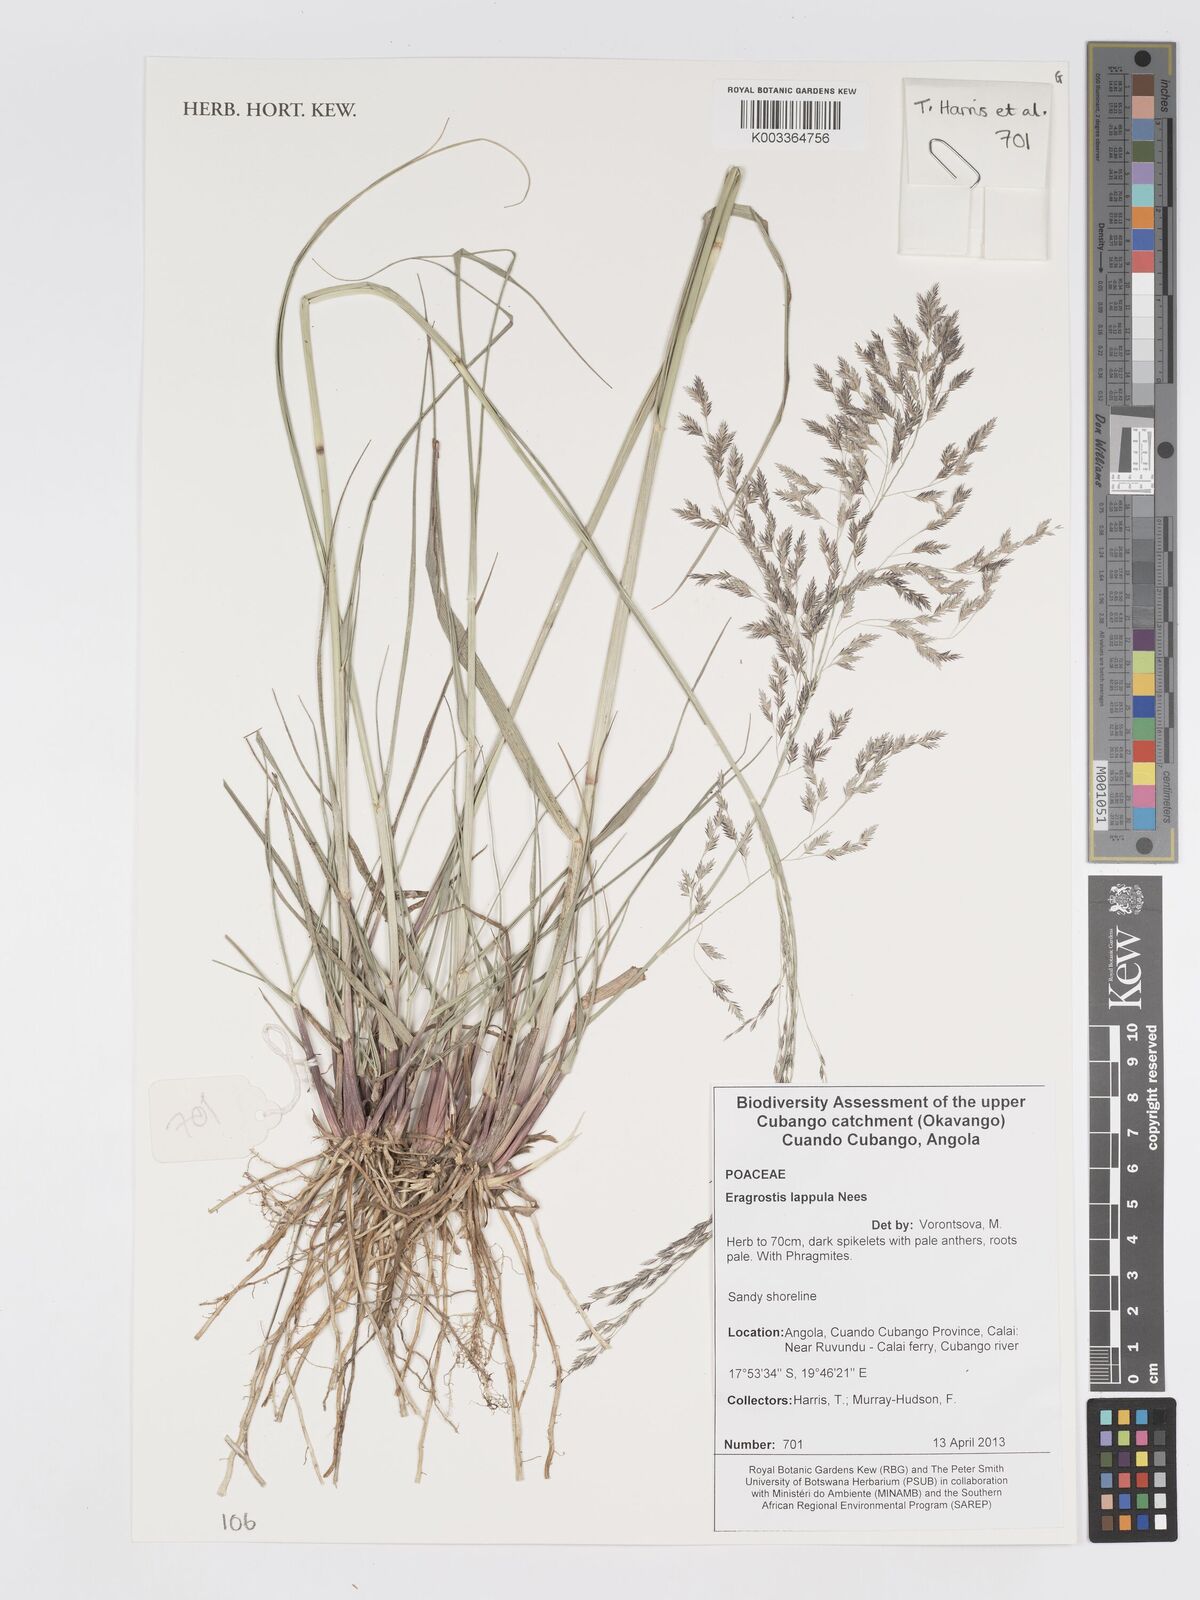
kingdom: Plantae
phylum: Tracheophyta
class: Liliopsida
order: Poales
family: Poaceae
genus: Eragrostis
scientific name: Eragrostis lappula
